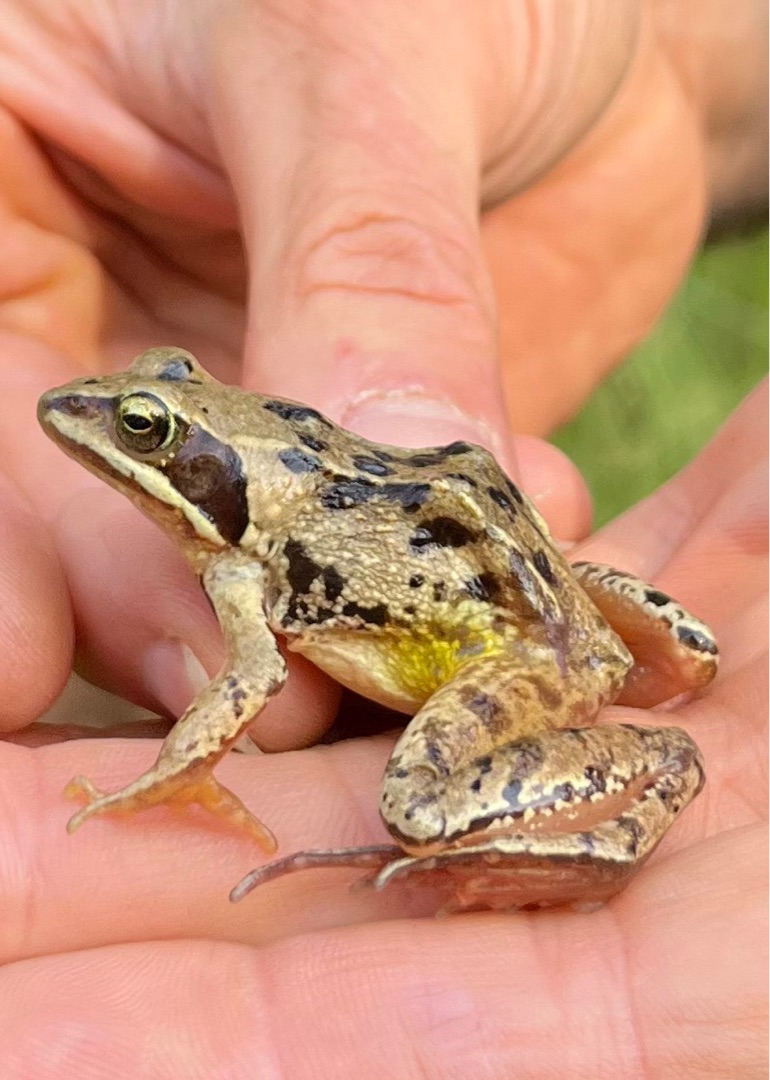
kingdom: Animalia
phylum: Chordata
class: Amphibia
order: Anura
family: Ranidae
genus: Rana
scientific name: Rana arvalis
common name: Spidssnudet frø
